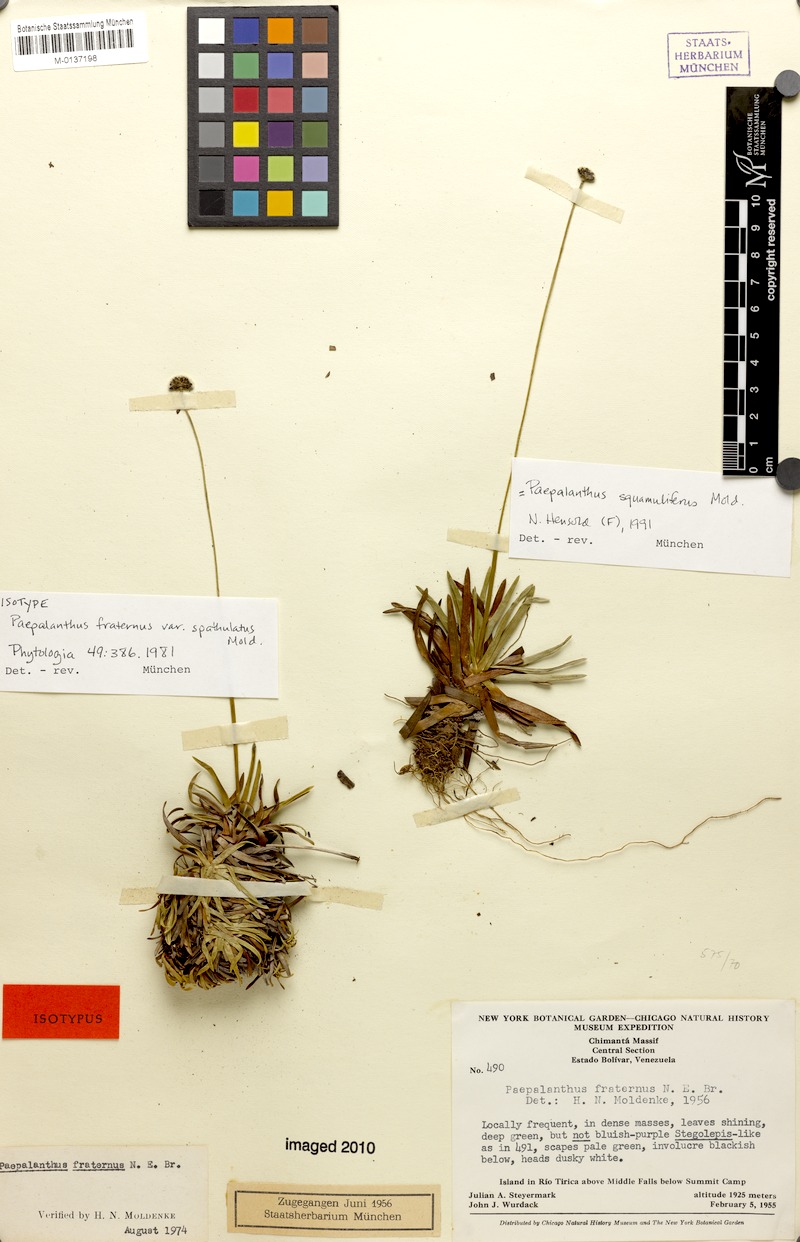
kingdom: Plantae
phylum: Tracheophyta
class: Liliopsida
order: Poales
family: Eriocaulaceae
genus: Paepalanthus
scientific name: Paepalanthus squamiliferus
